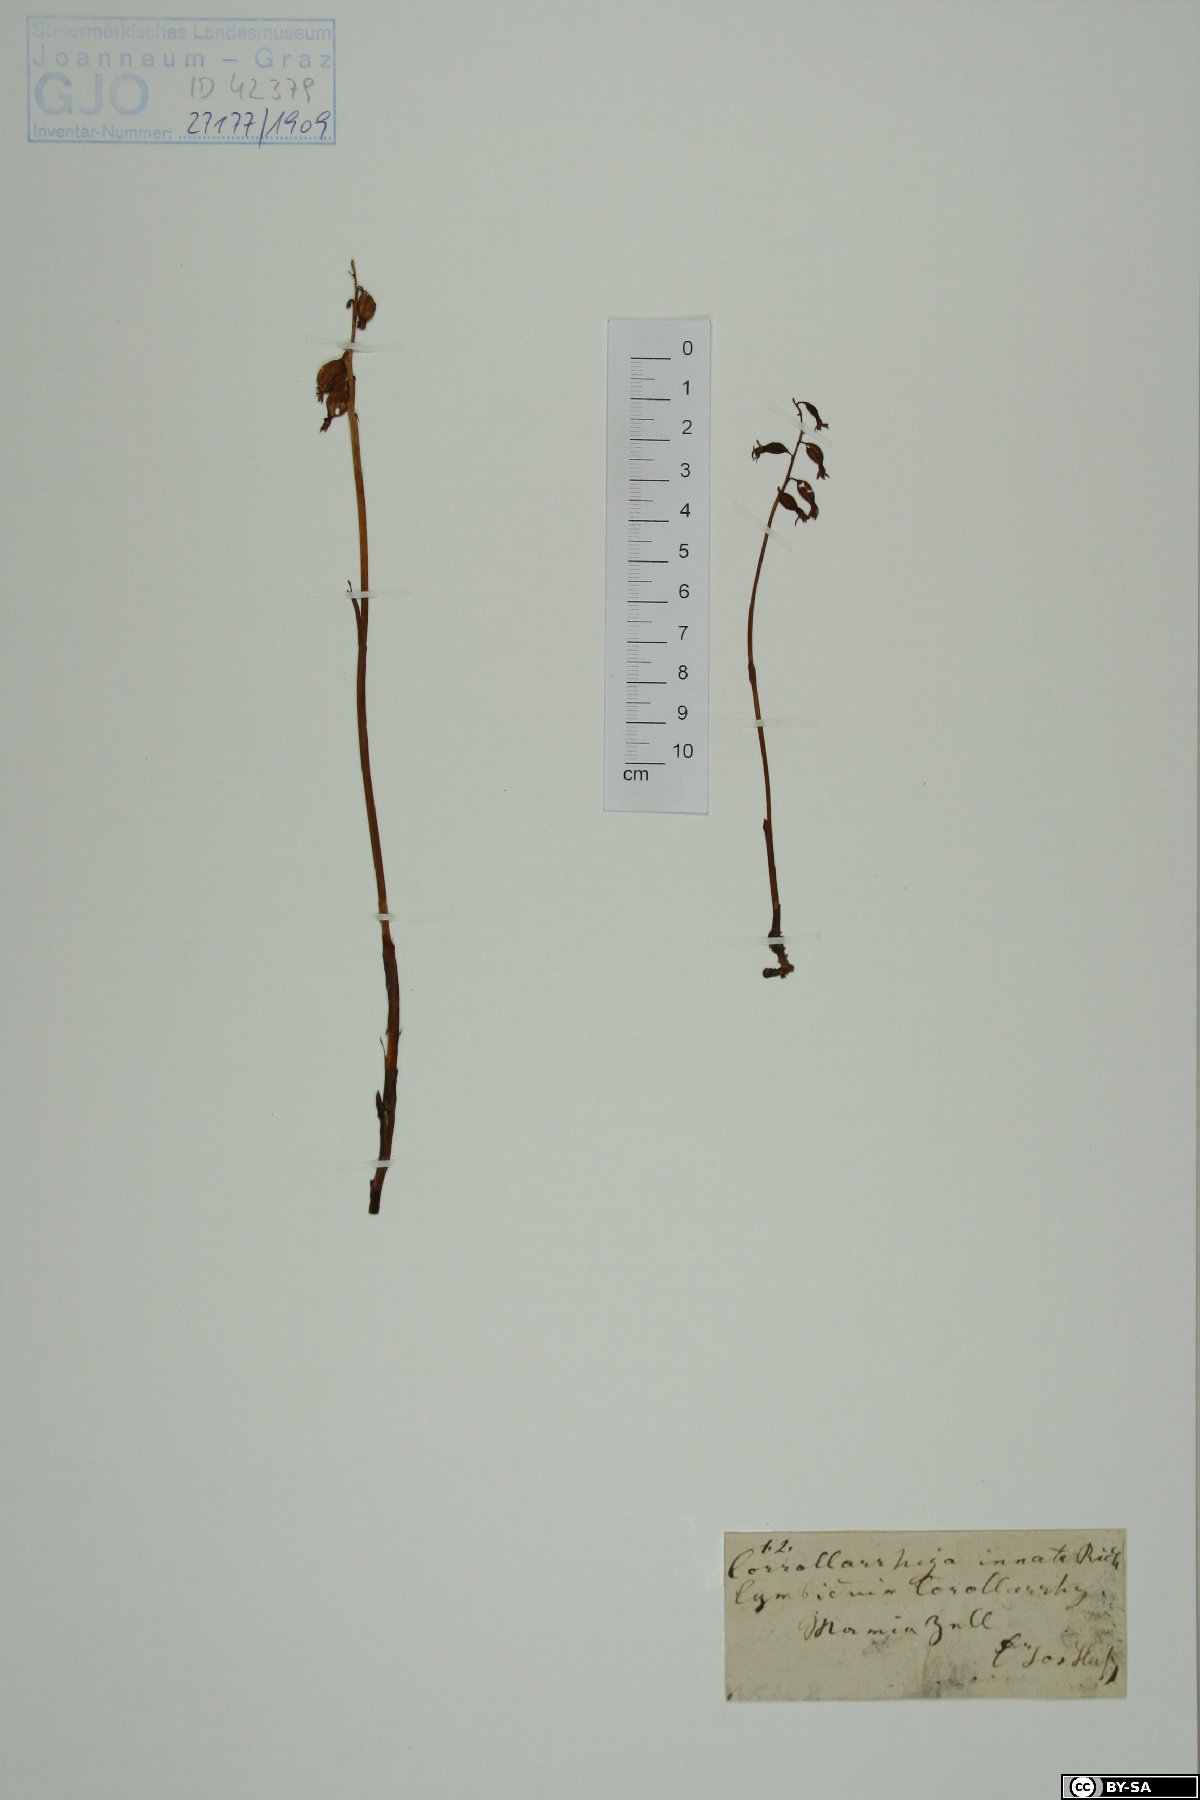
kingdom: Plantae
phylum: Tracheophyta
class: Liliopsida
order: Asparagales
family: Orchidaceae
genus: Corallorhiza
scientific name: Corallorhiza trifida
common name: Yellow coralroot
